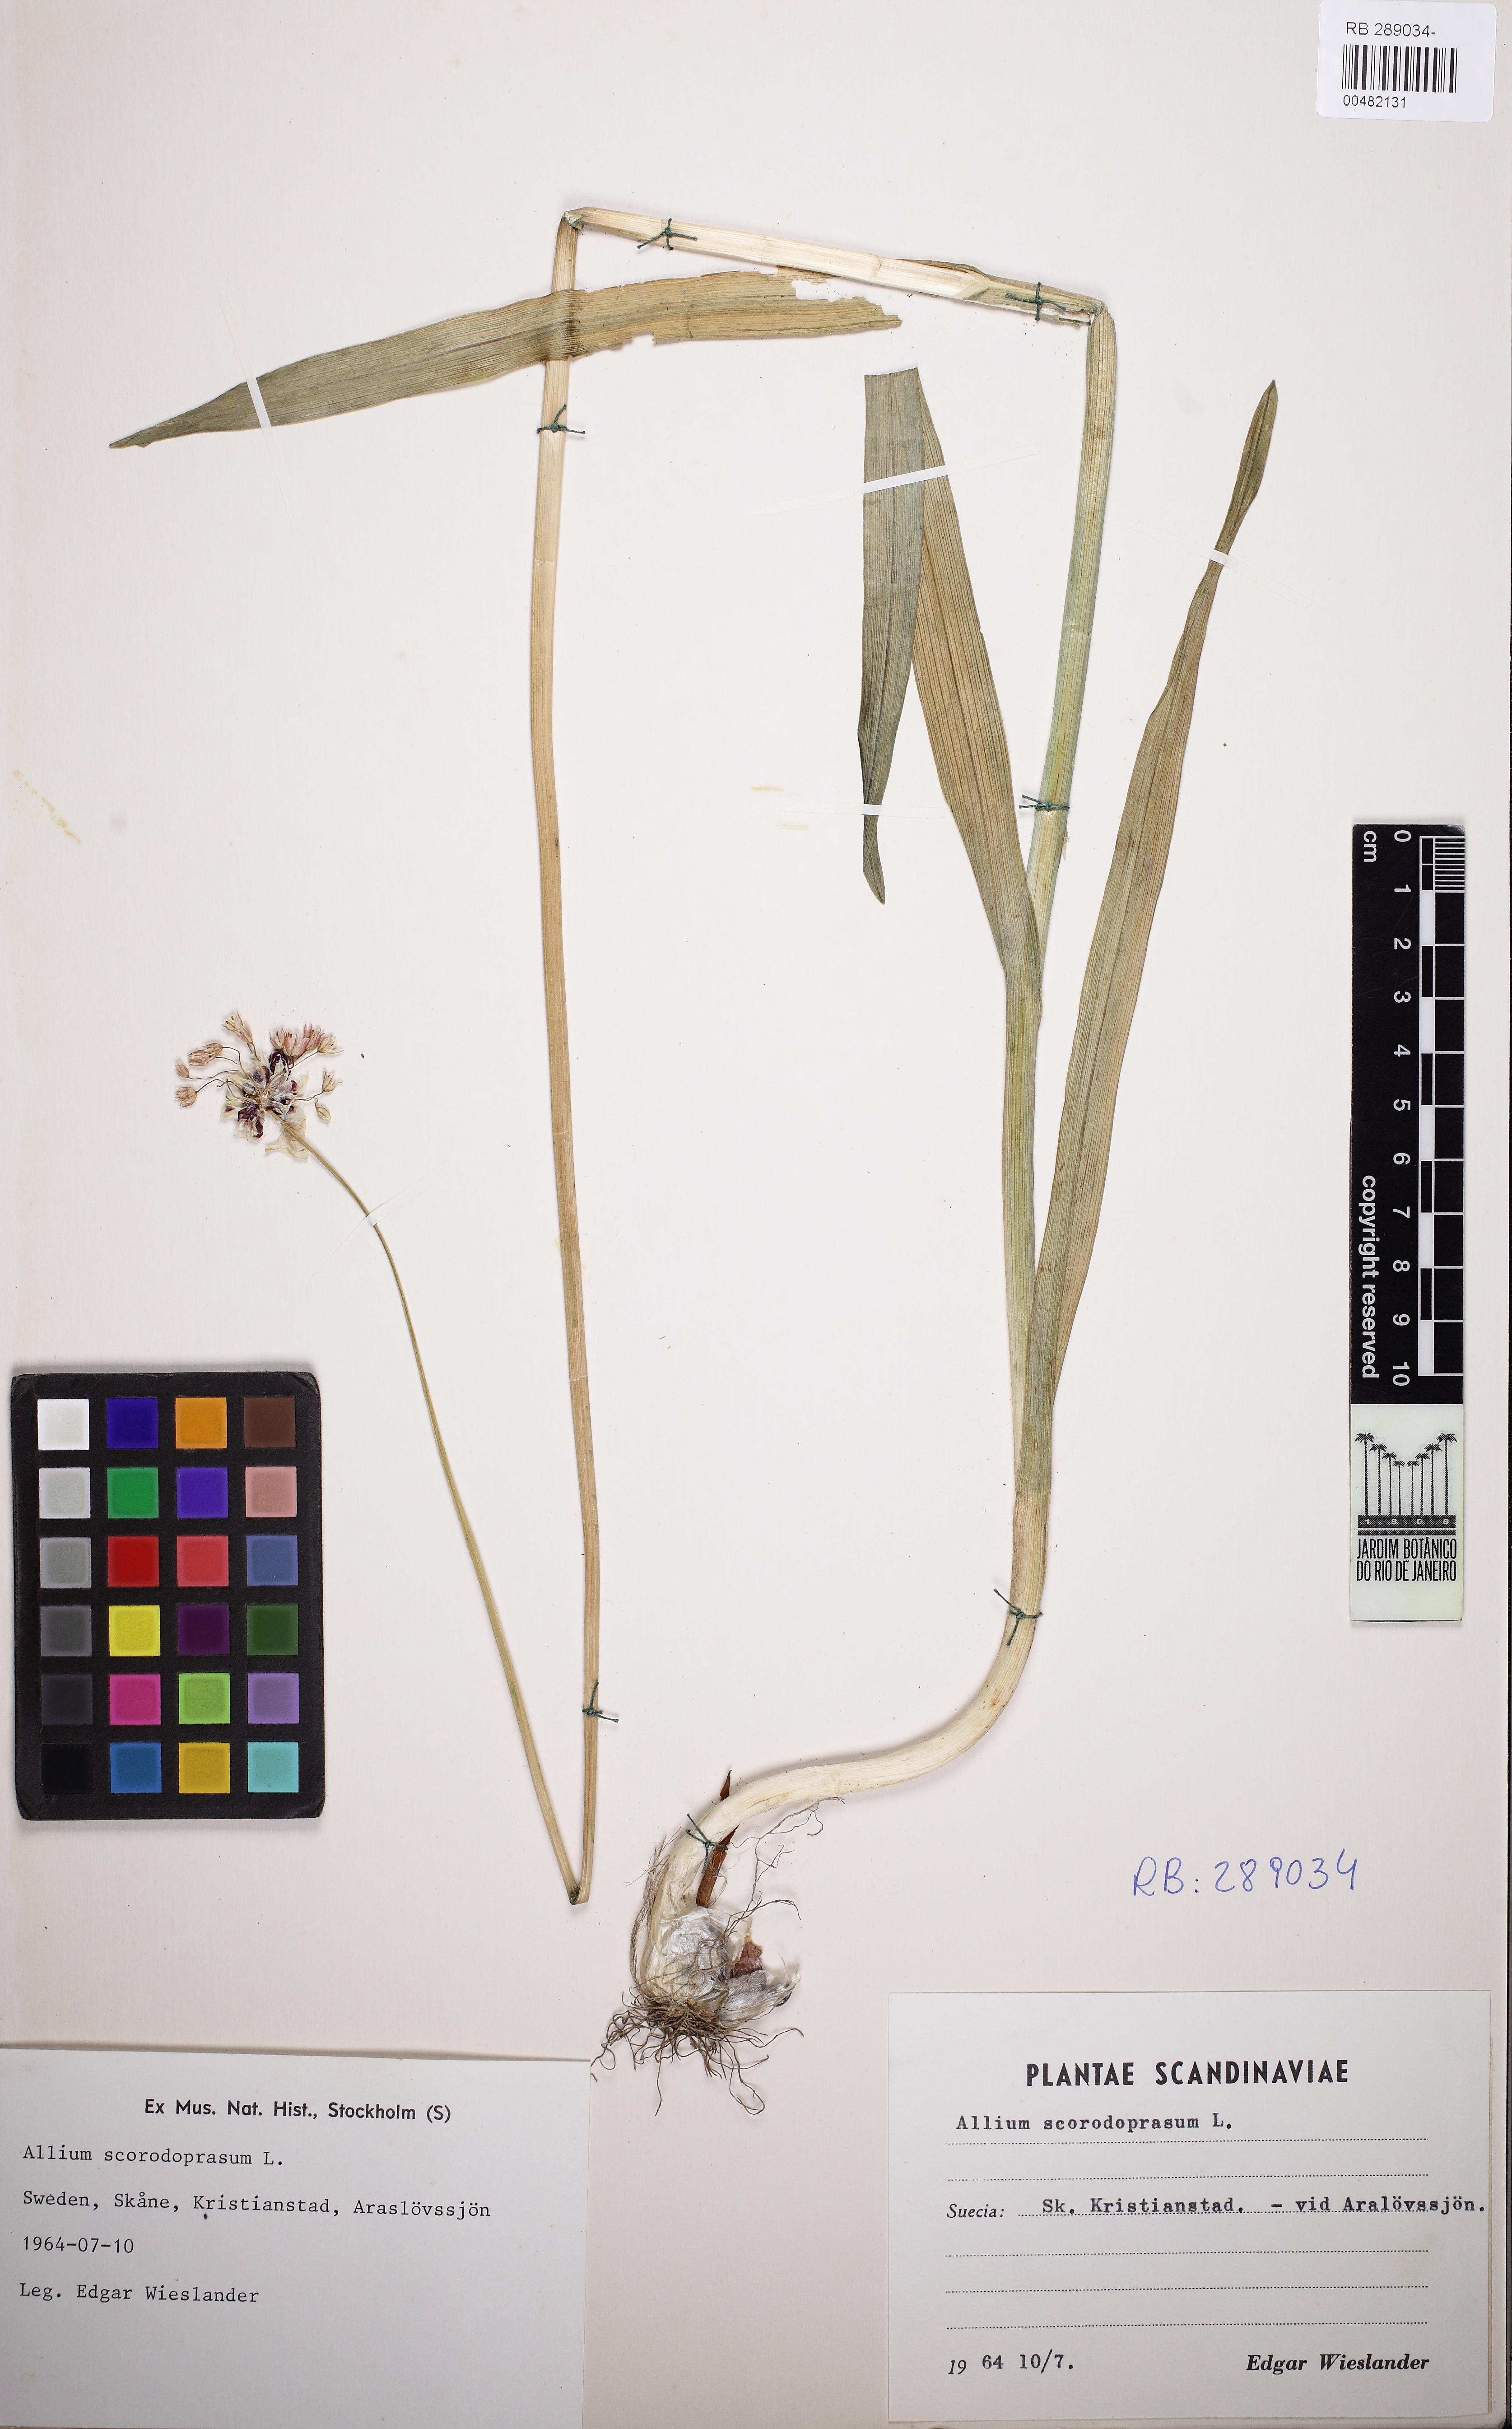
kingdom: Plantae
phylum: Tracheophyta
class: Liliopsida
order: Asparagales
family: Amaryllidaceae
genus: Allium
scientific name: Allium scorodoprasum
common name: Sand leek
